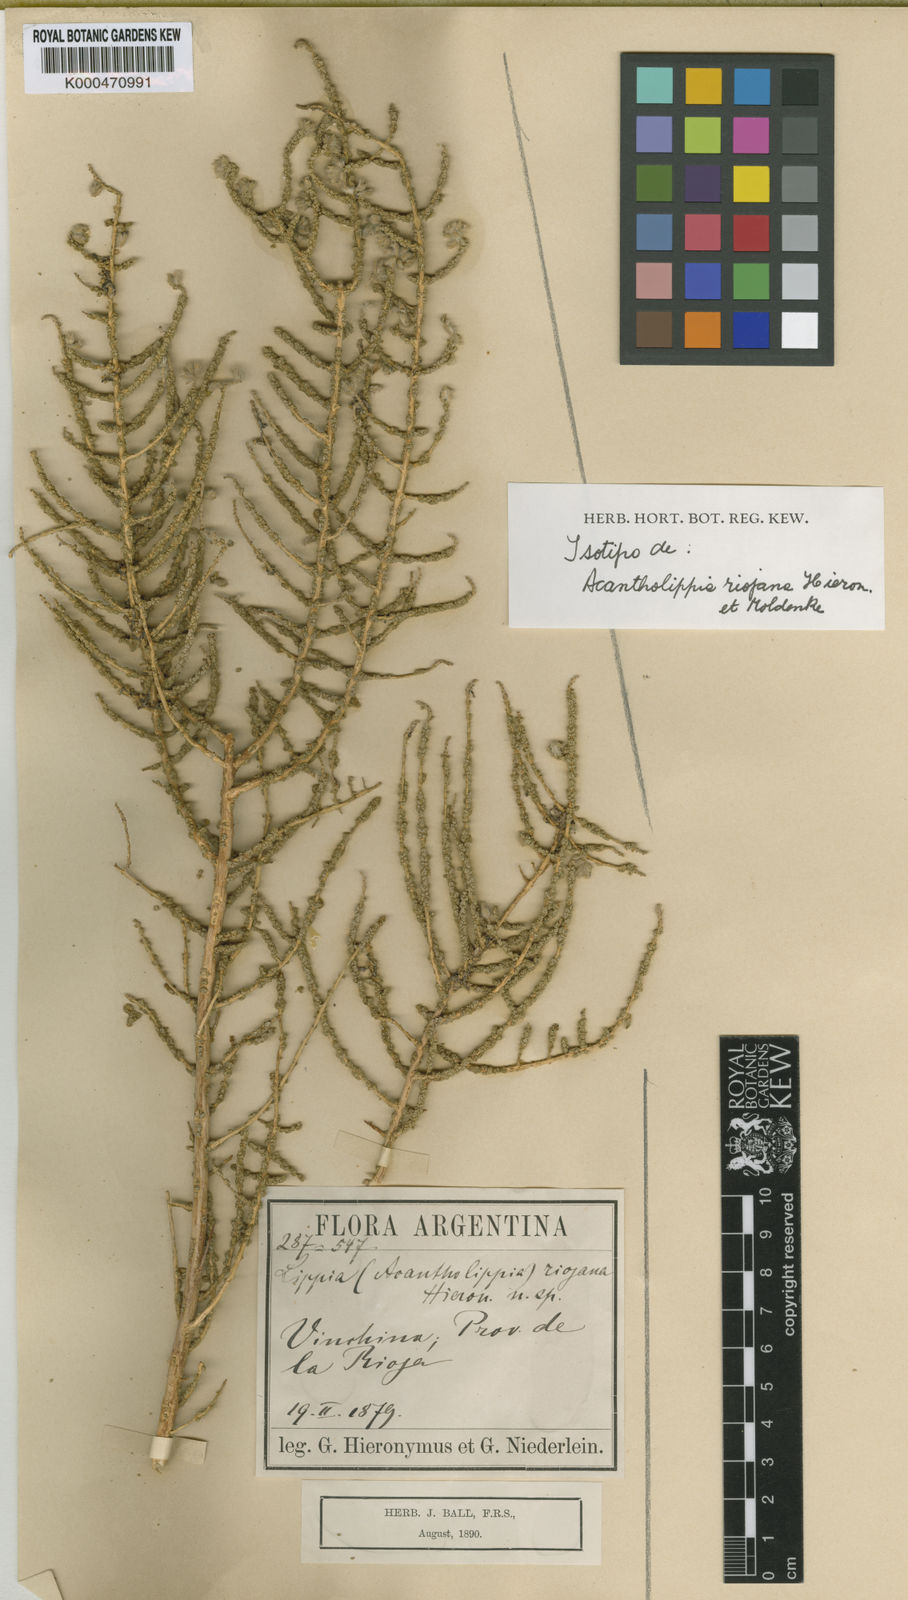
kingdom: Plantae
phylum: Tracheophyta
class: Magnoliopsida
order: Lamiales
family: Verbenaceae
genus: Aloysia
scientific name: Aloysia riojana
